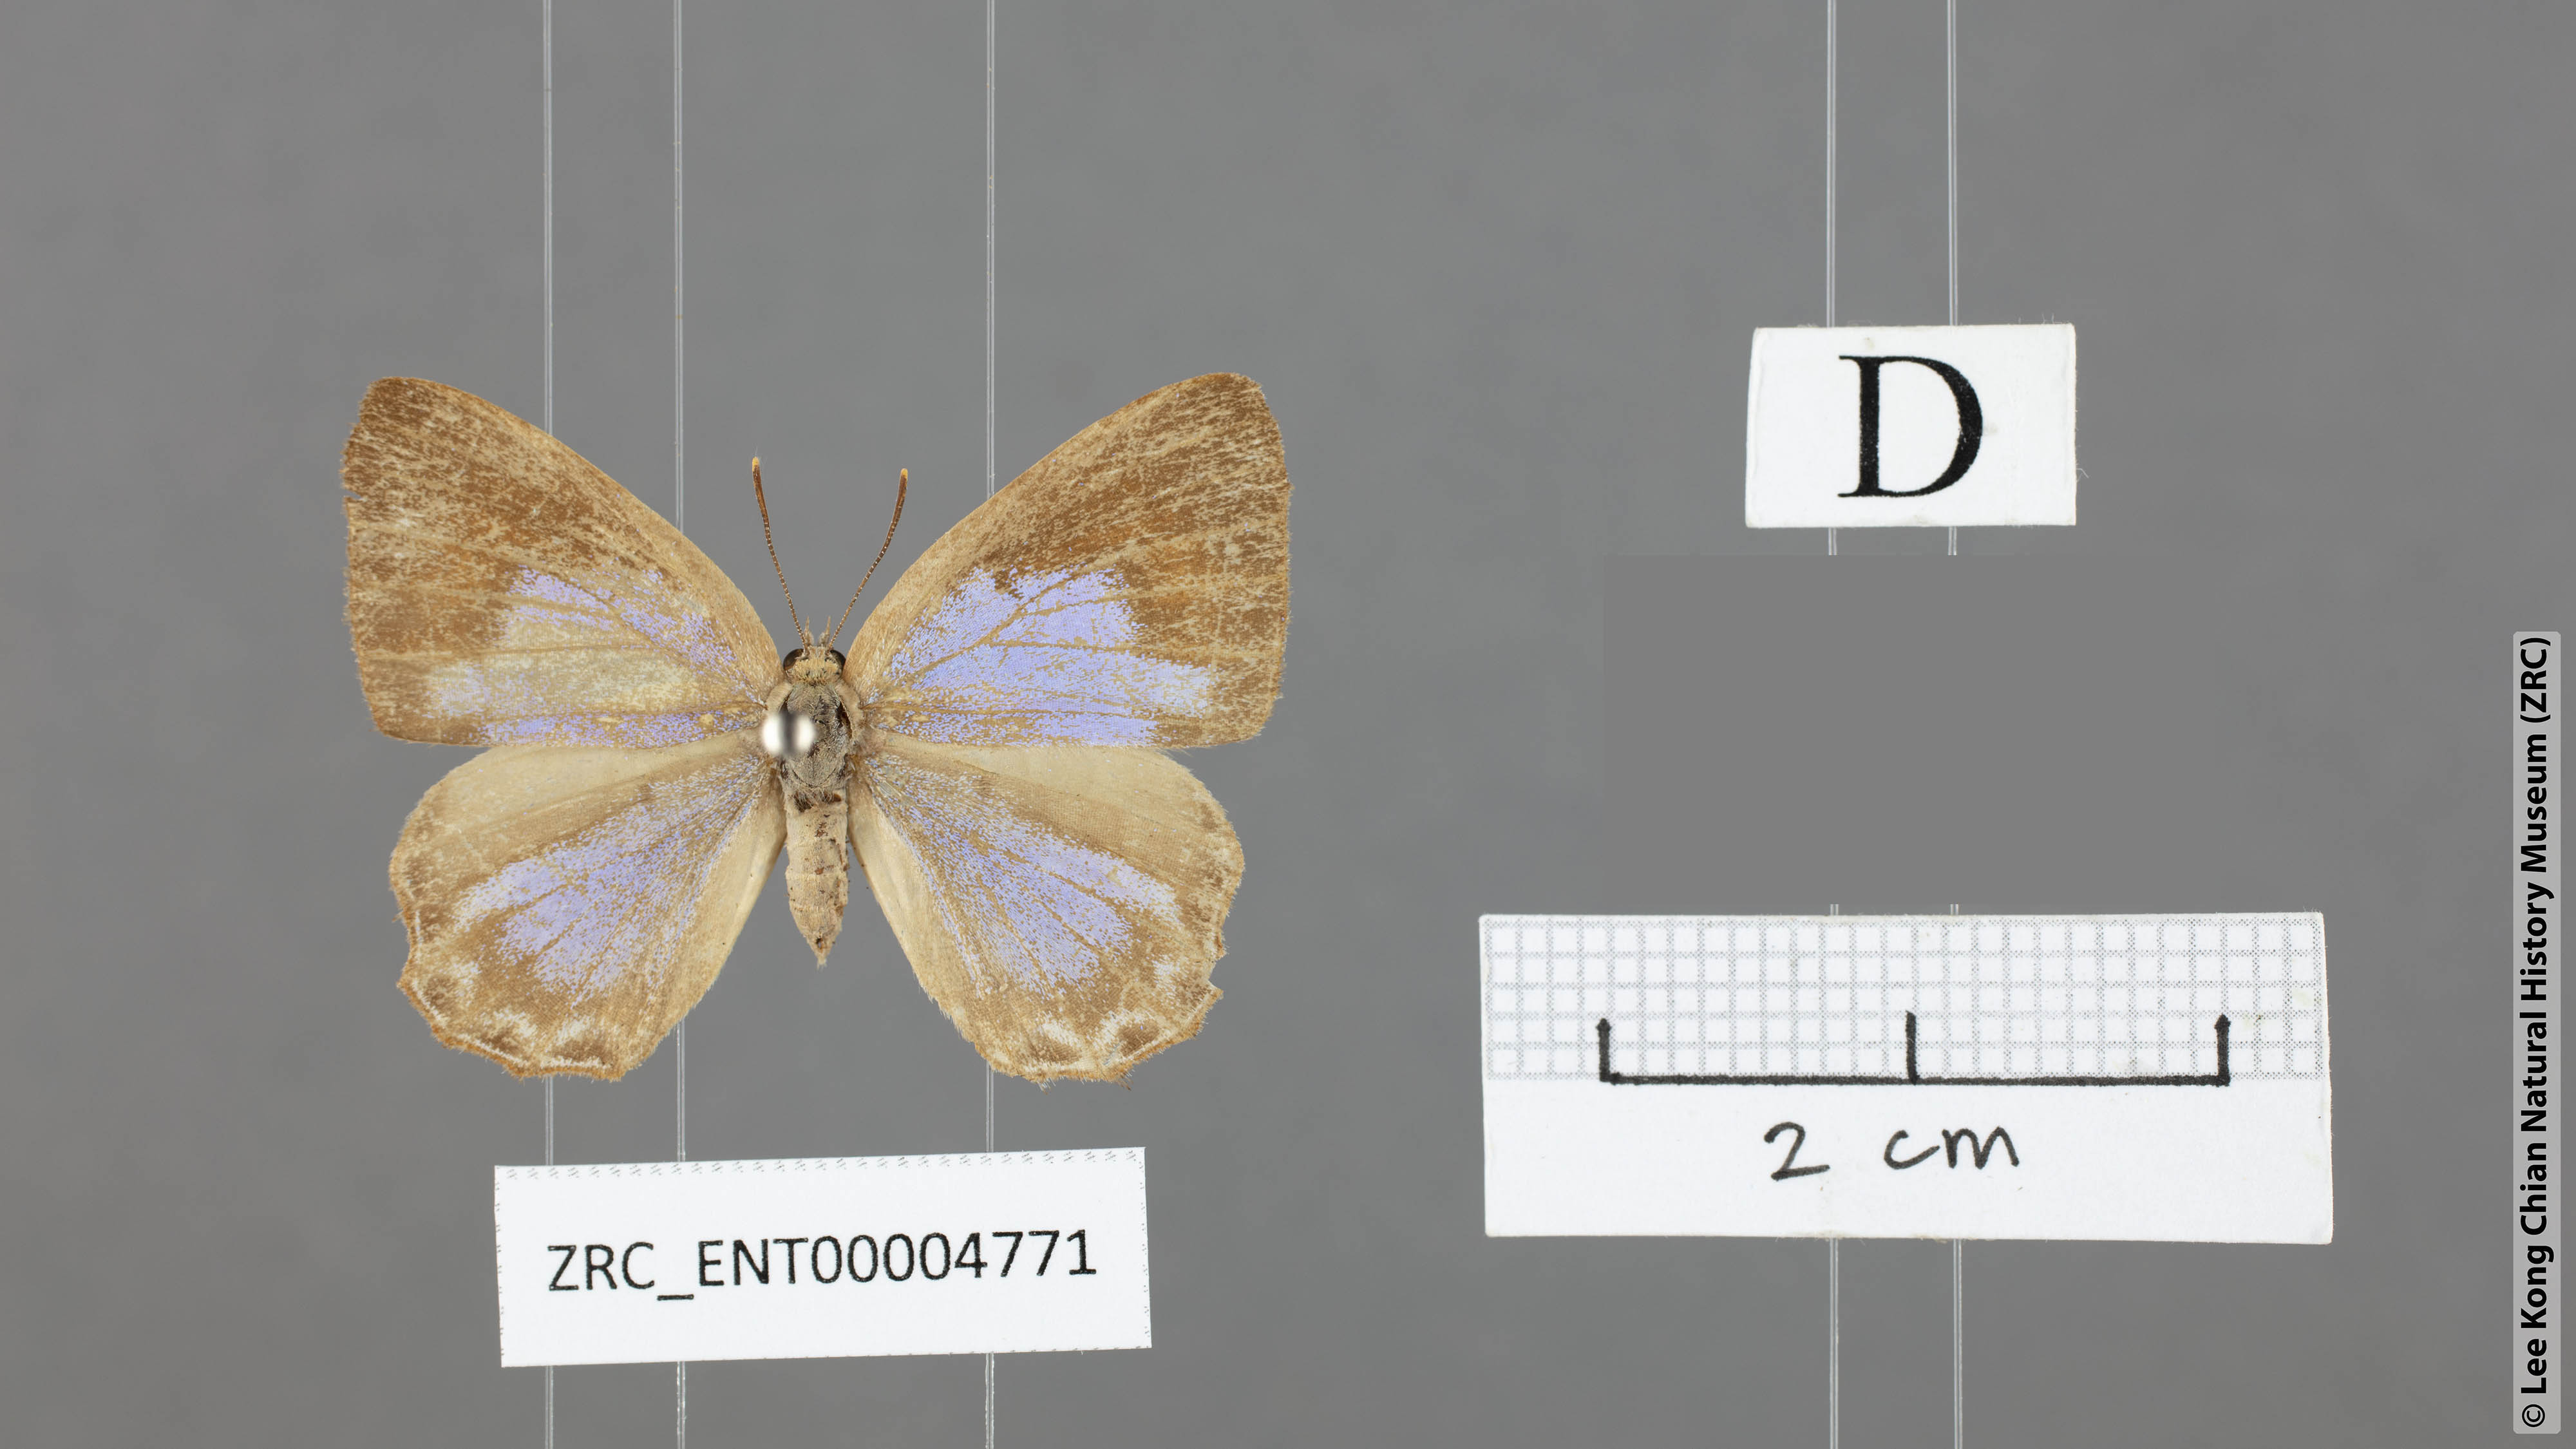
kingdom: Animalia
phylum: Arthropoda
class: Insecta
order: Lepidoptera
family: Lycaenidae
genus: Poritia
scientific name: Poritia promula
